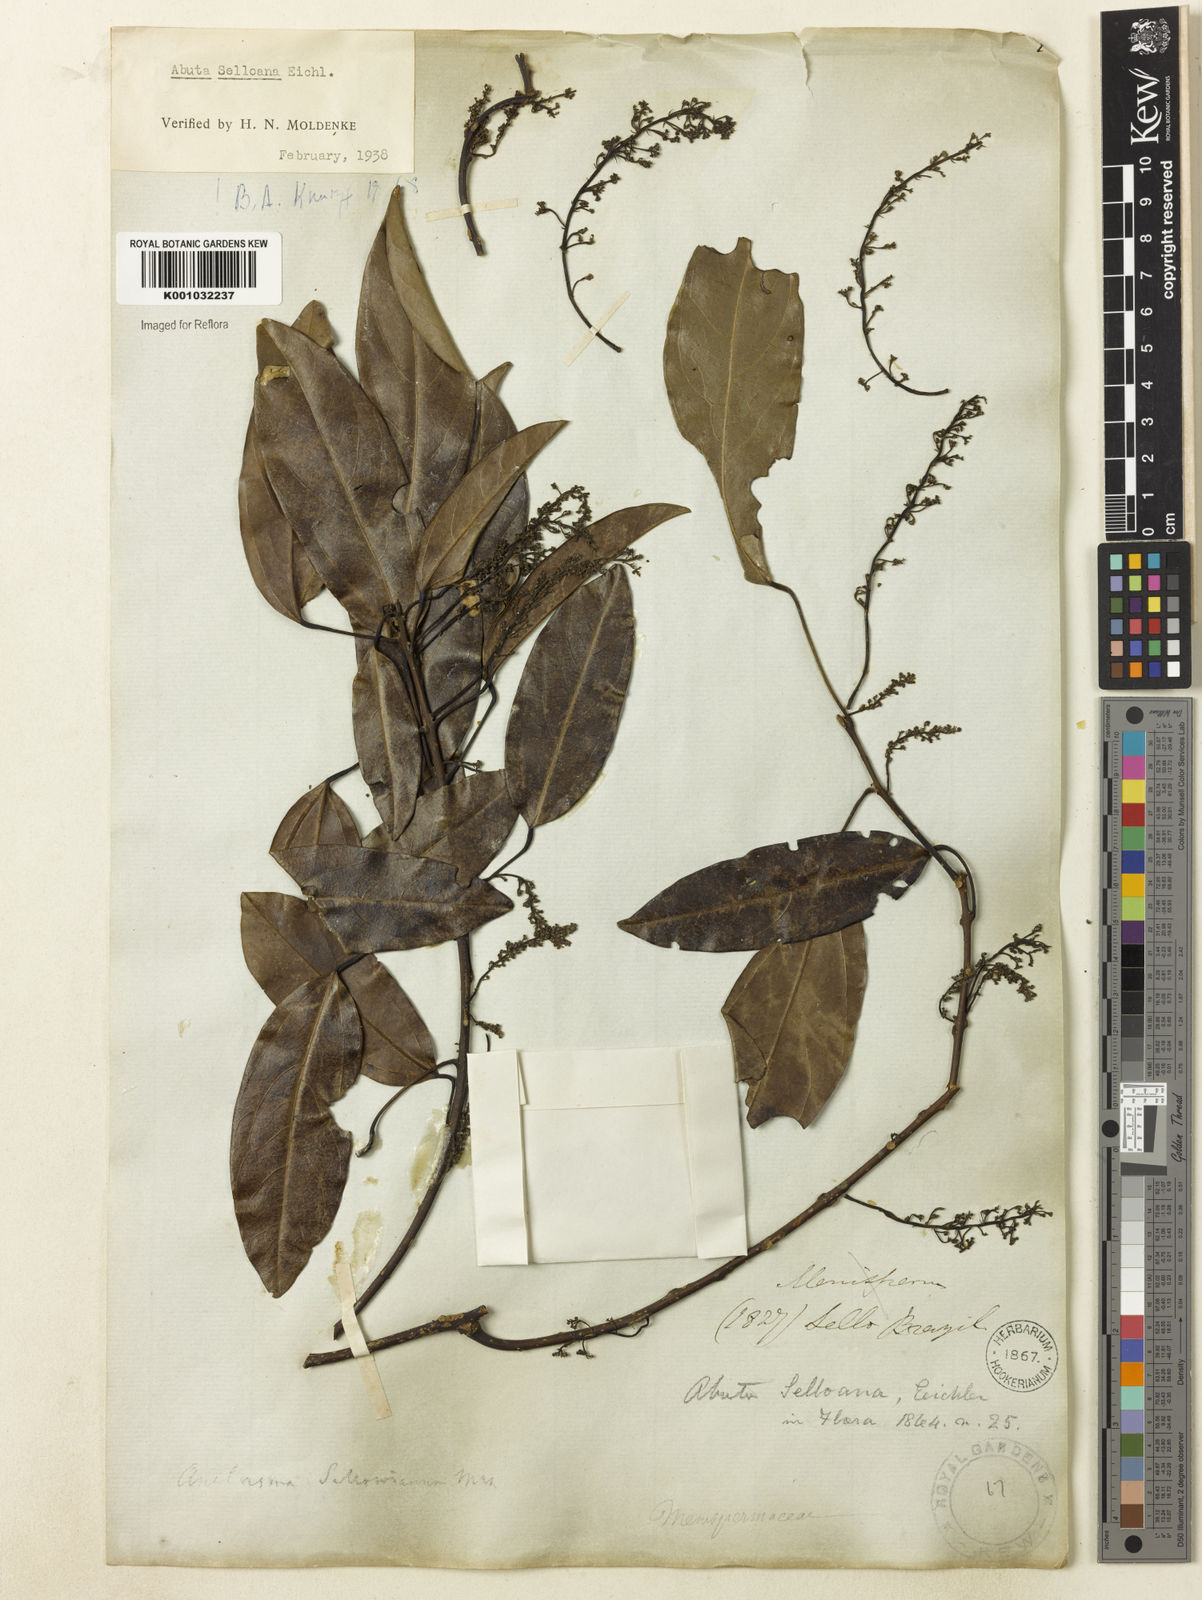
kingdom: Plantae
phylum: Tracheophyta
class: Magnoliopsida
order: Ranunculales
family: Menispermaceae
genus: Abuta
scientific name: Abuta selloana
